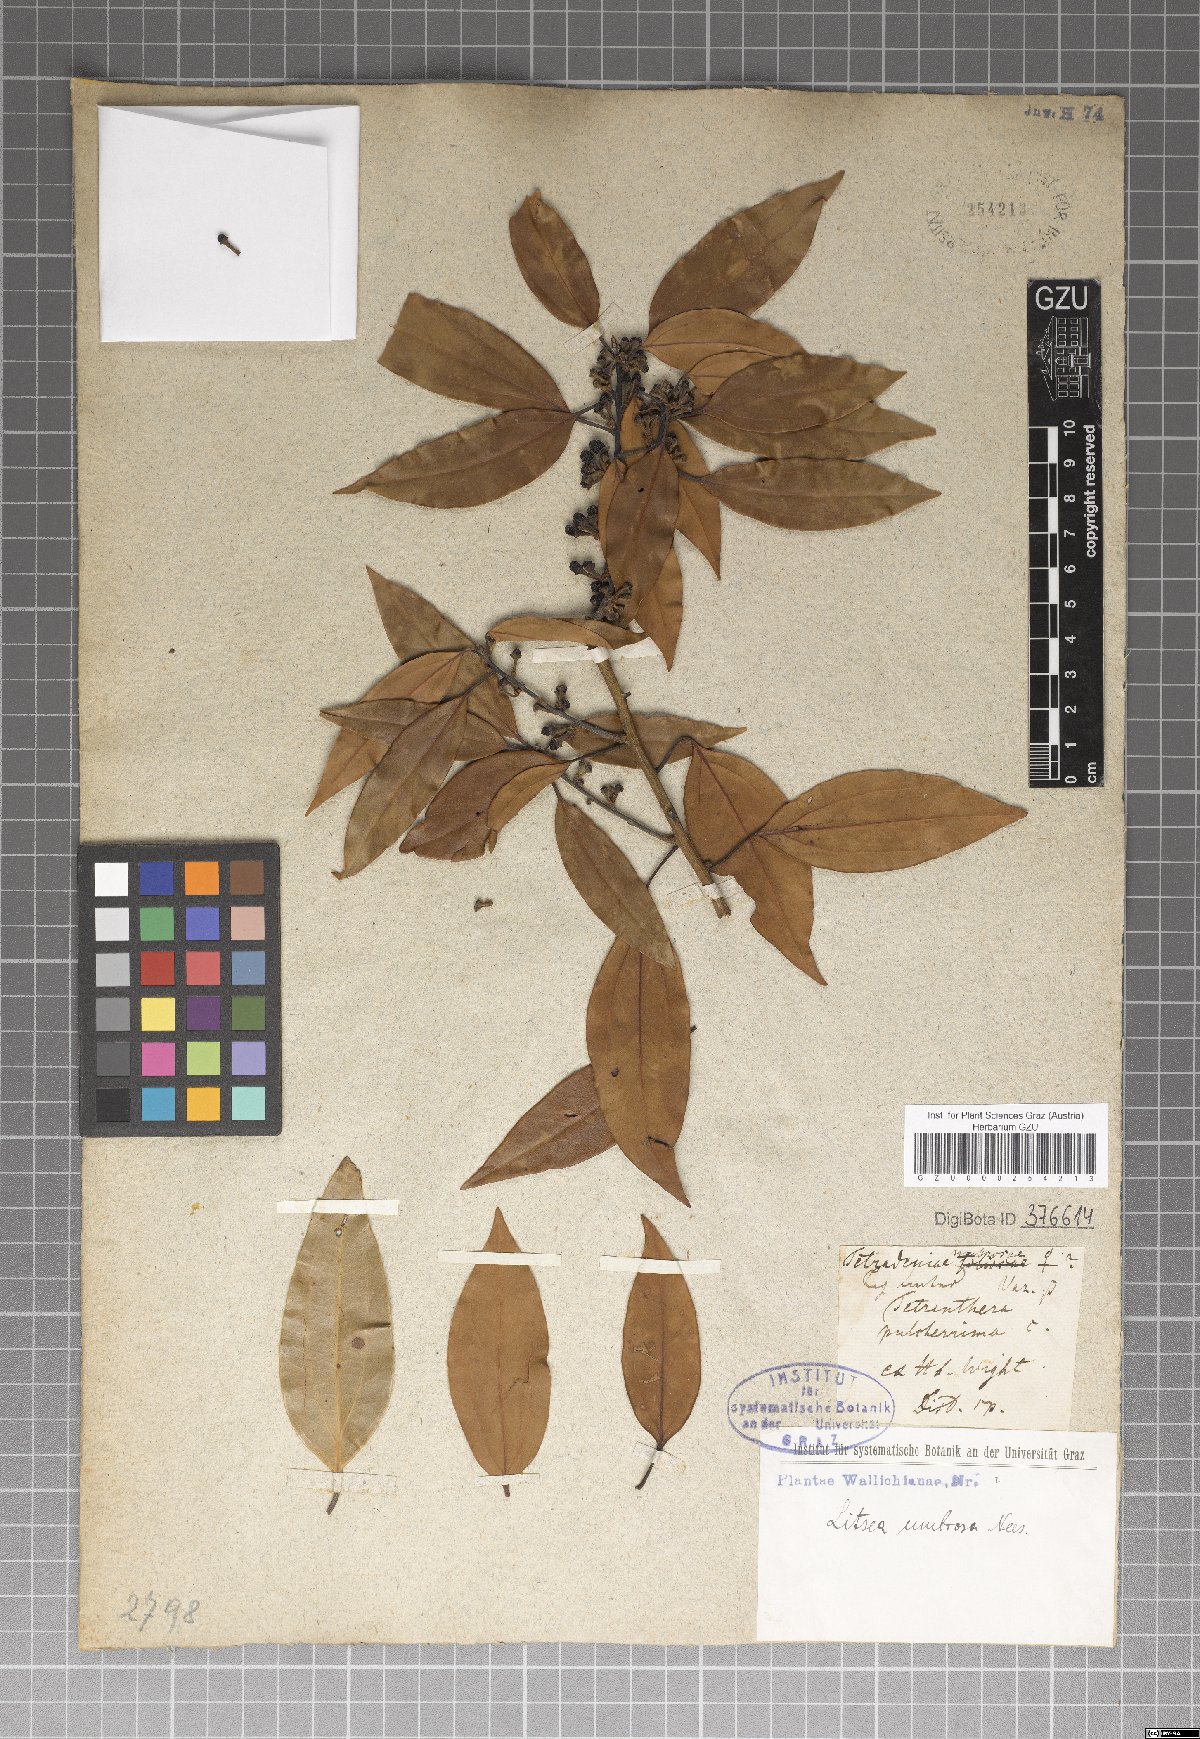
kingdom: Plantae
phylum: Tracheophyta
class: Magnoliopsida
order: Laurales
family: Lauraceae
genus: Neolitsea
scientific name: Neolitsea umbrosa
